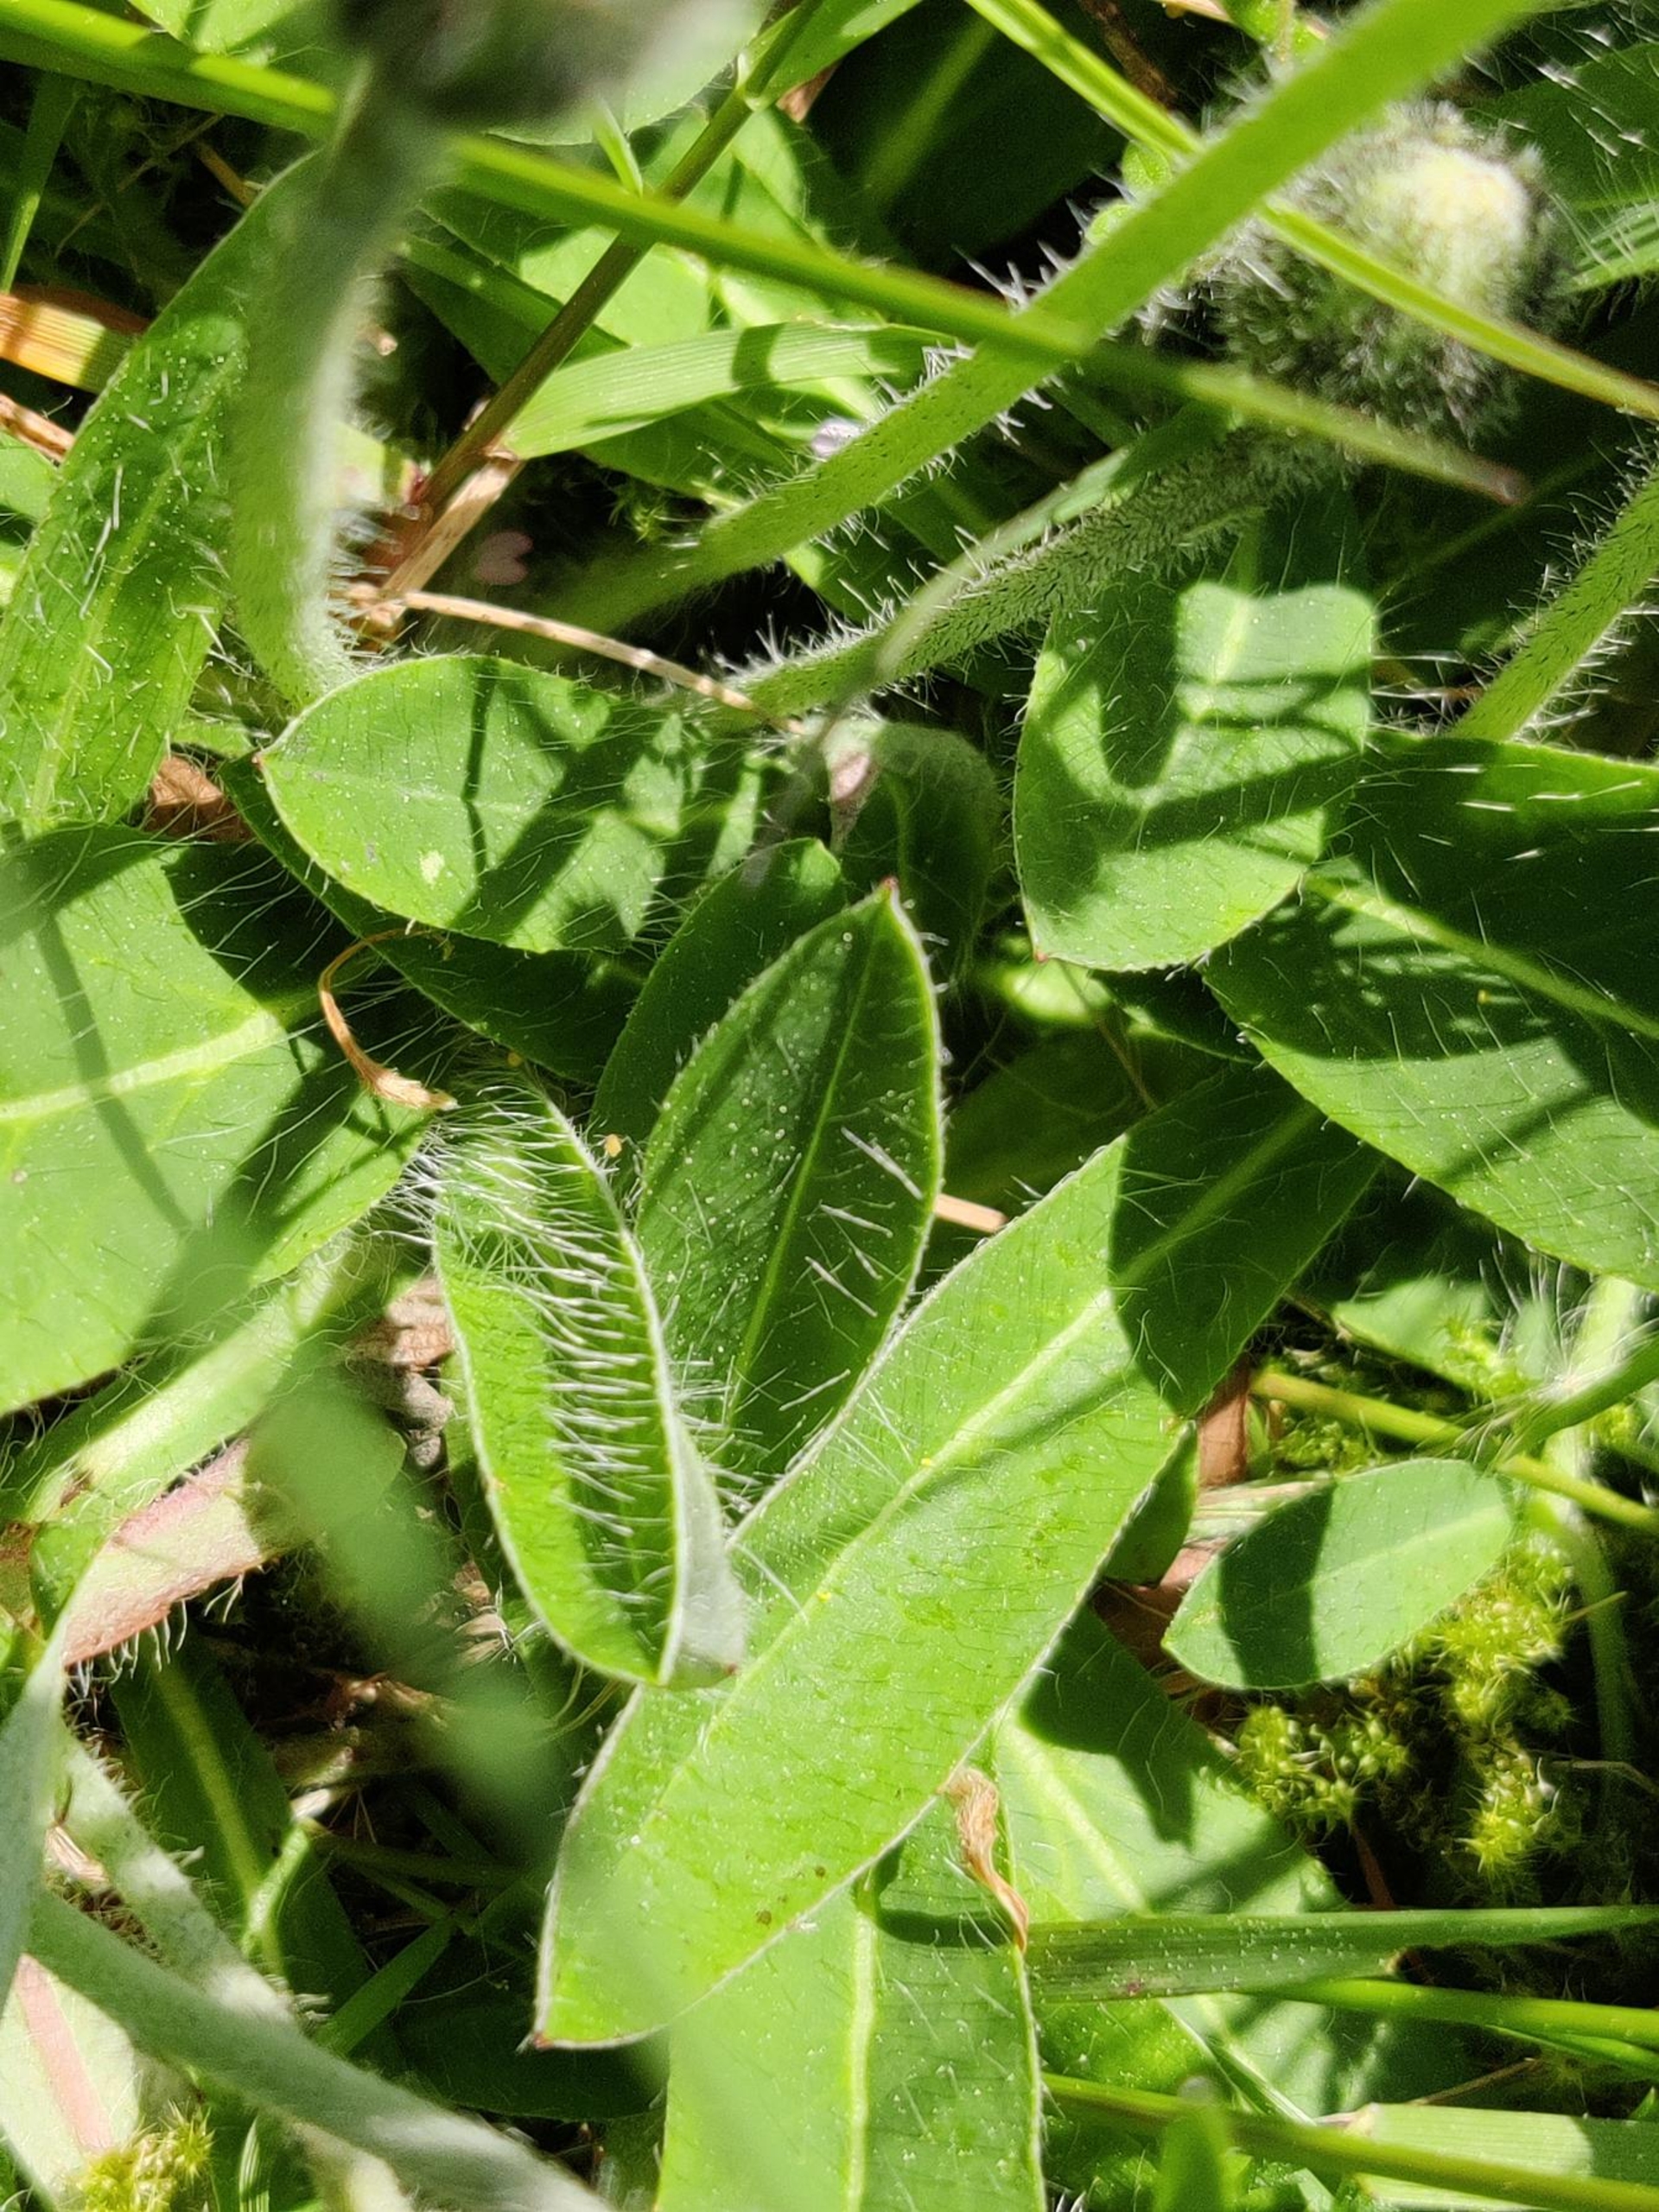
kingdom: Plantae
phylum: Tracheophyta
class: Magnoliopsida
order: Asterales
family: Asteraceae
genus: Pilosella
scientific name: Pilosella officinarum
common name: Håret høgeurt
